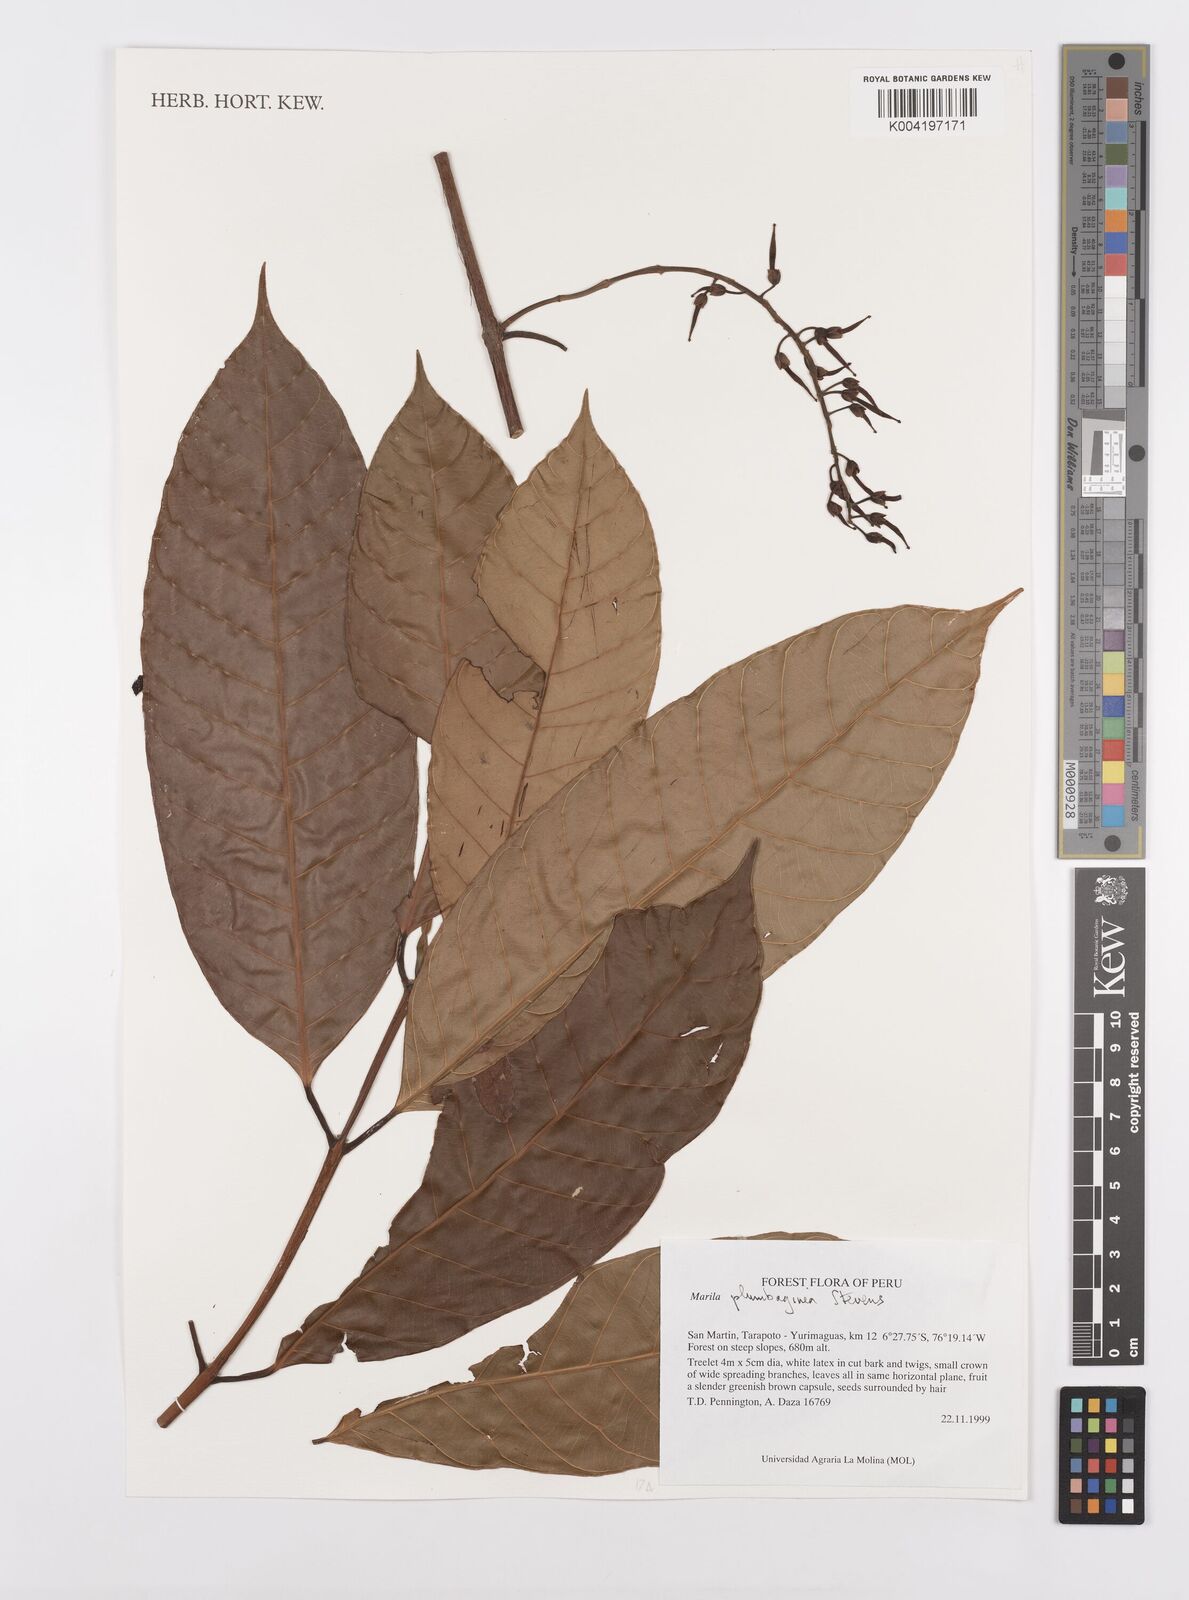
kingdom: Plantae
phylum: Tracheophyta
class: Magnoliopsida
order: Malpighiales
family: Calophyllaceae
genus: Marila
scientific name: Marila
